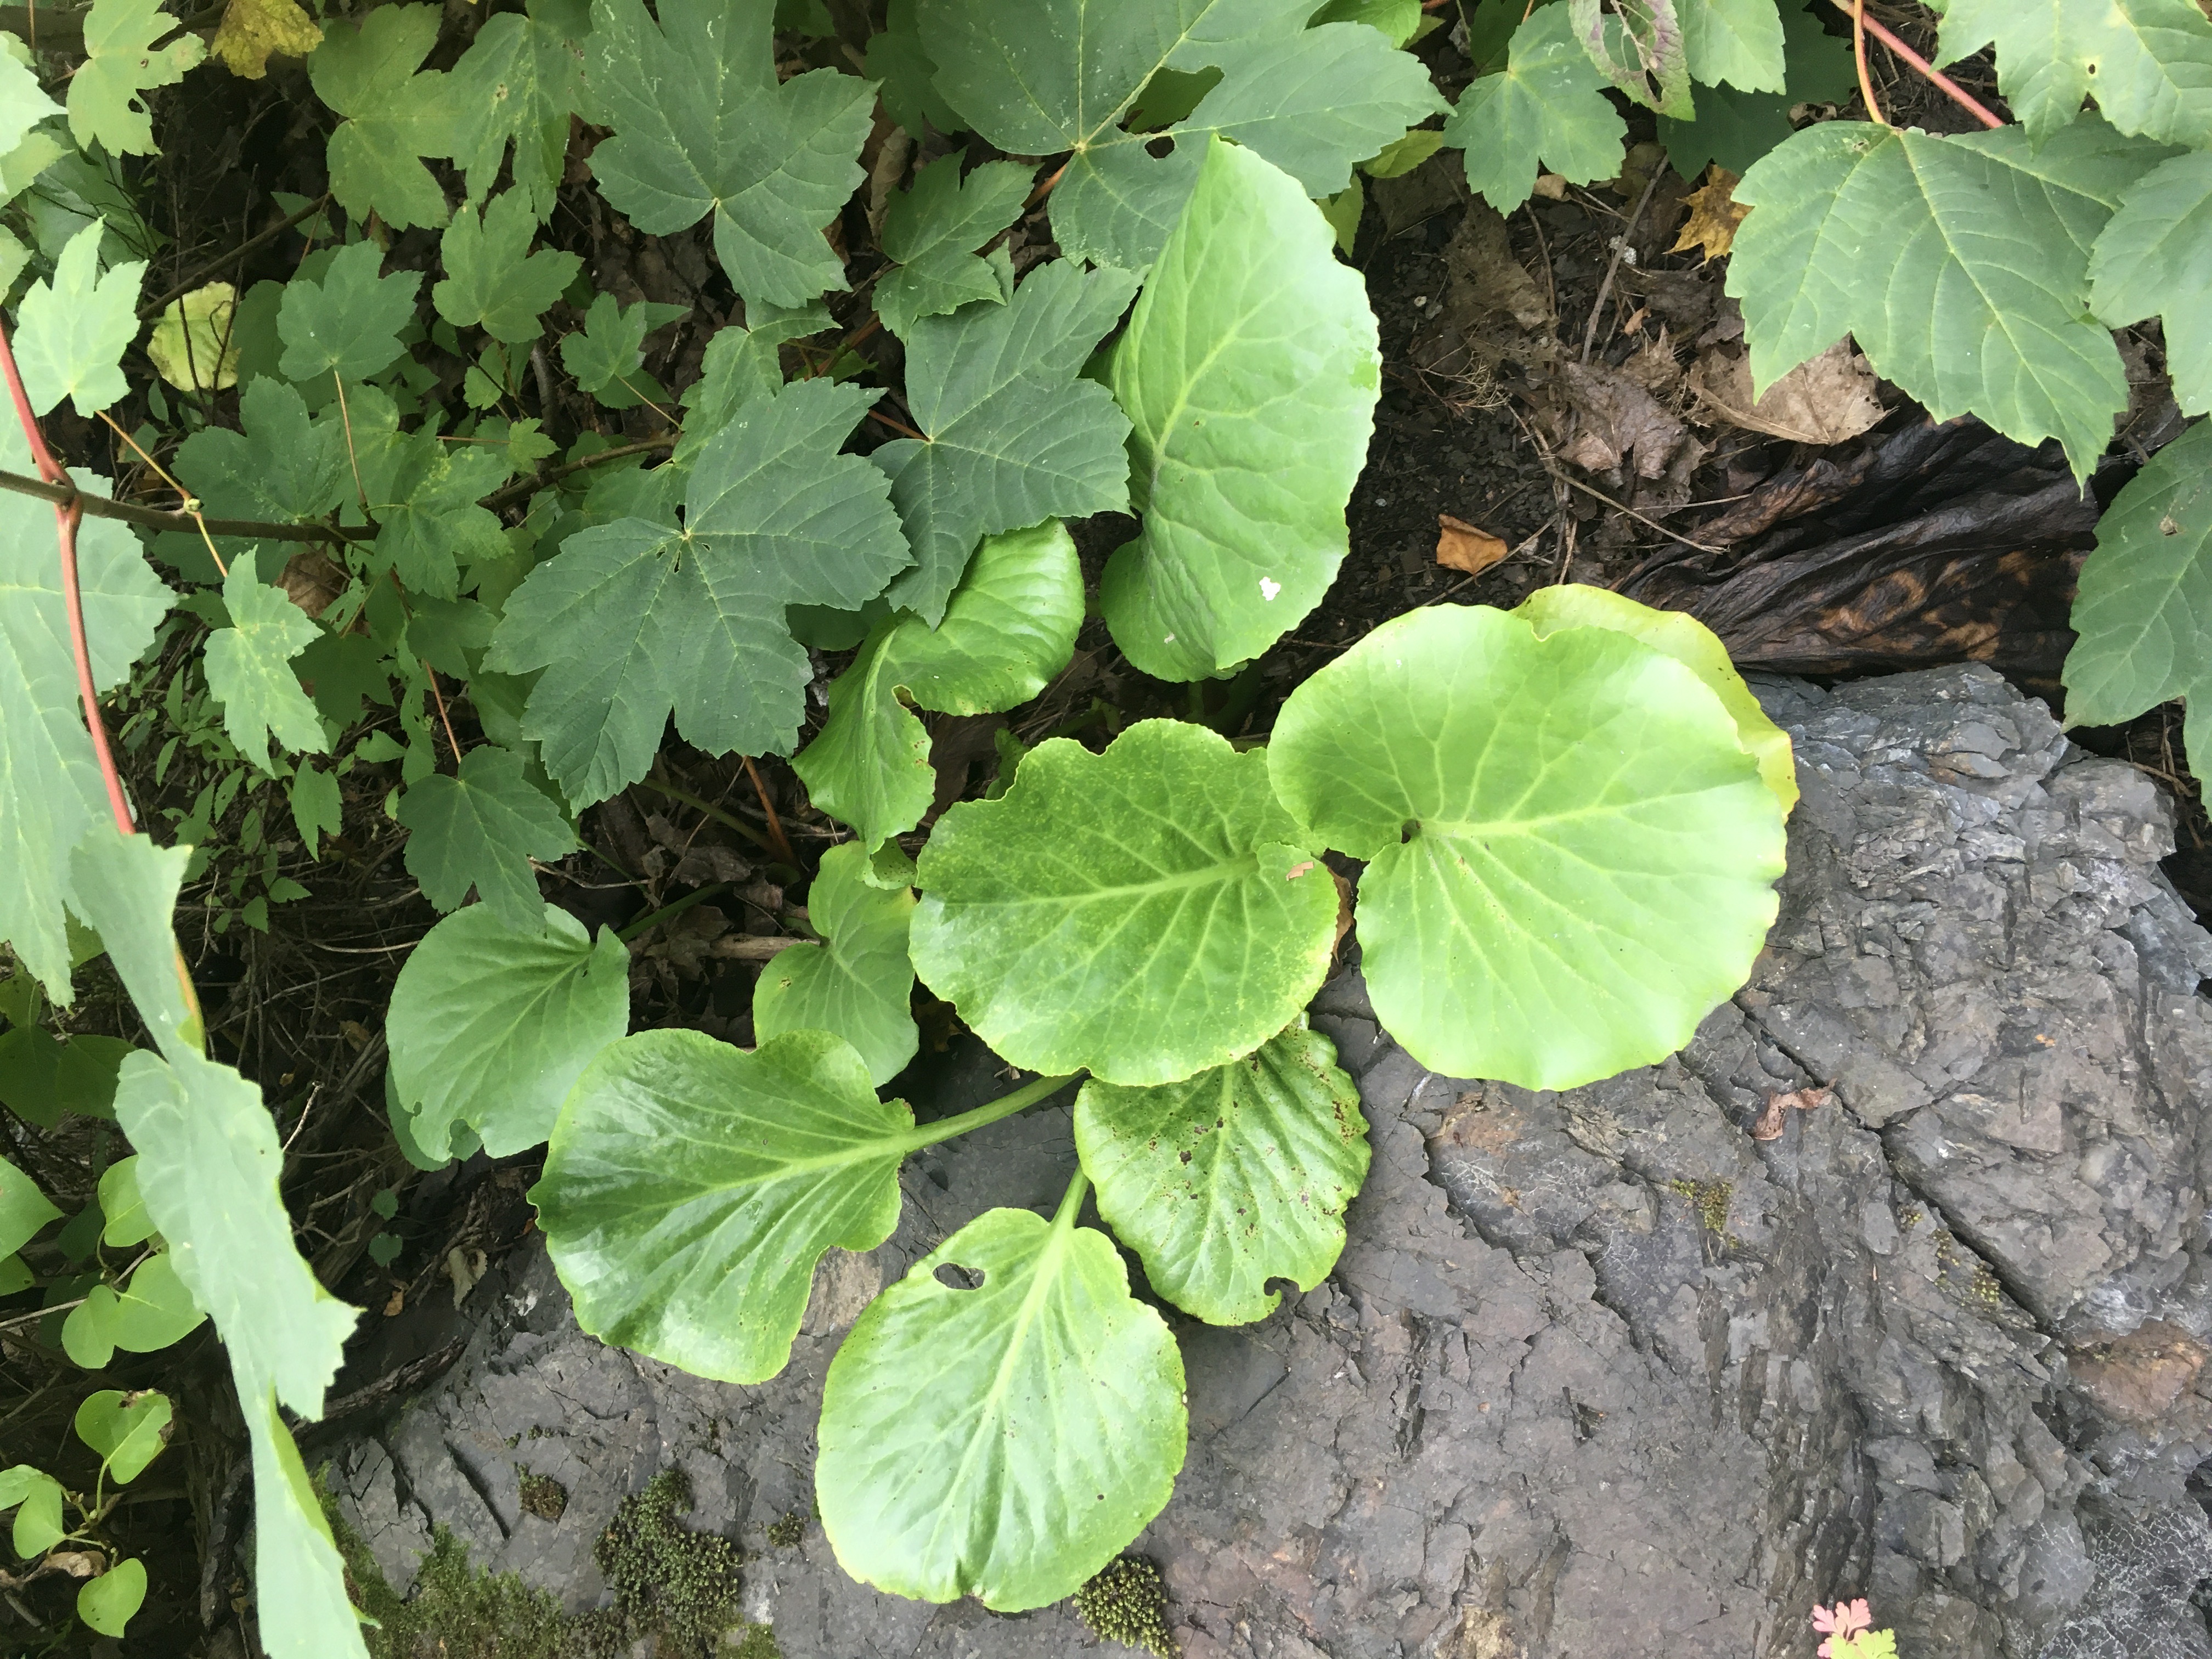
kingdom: Plantae
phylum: Tracheophyta
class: Magnoliopsida
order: Saxifragales
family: Saxifragaceae
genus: Bergenia
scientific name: Bergenia crassifolia
